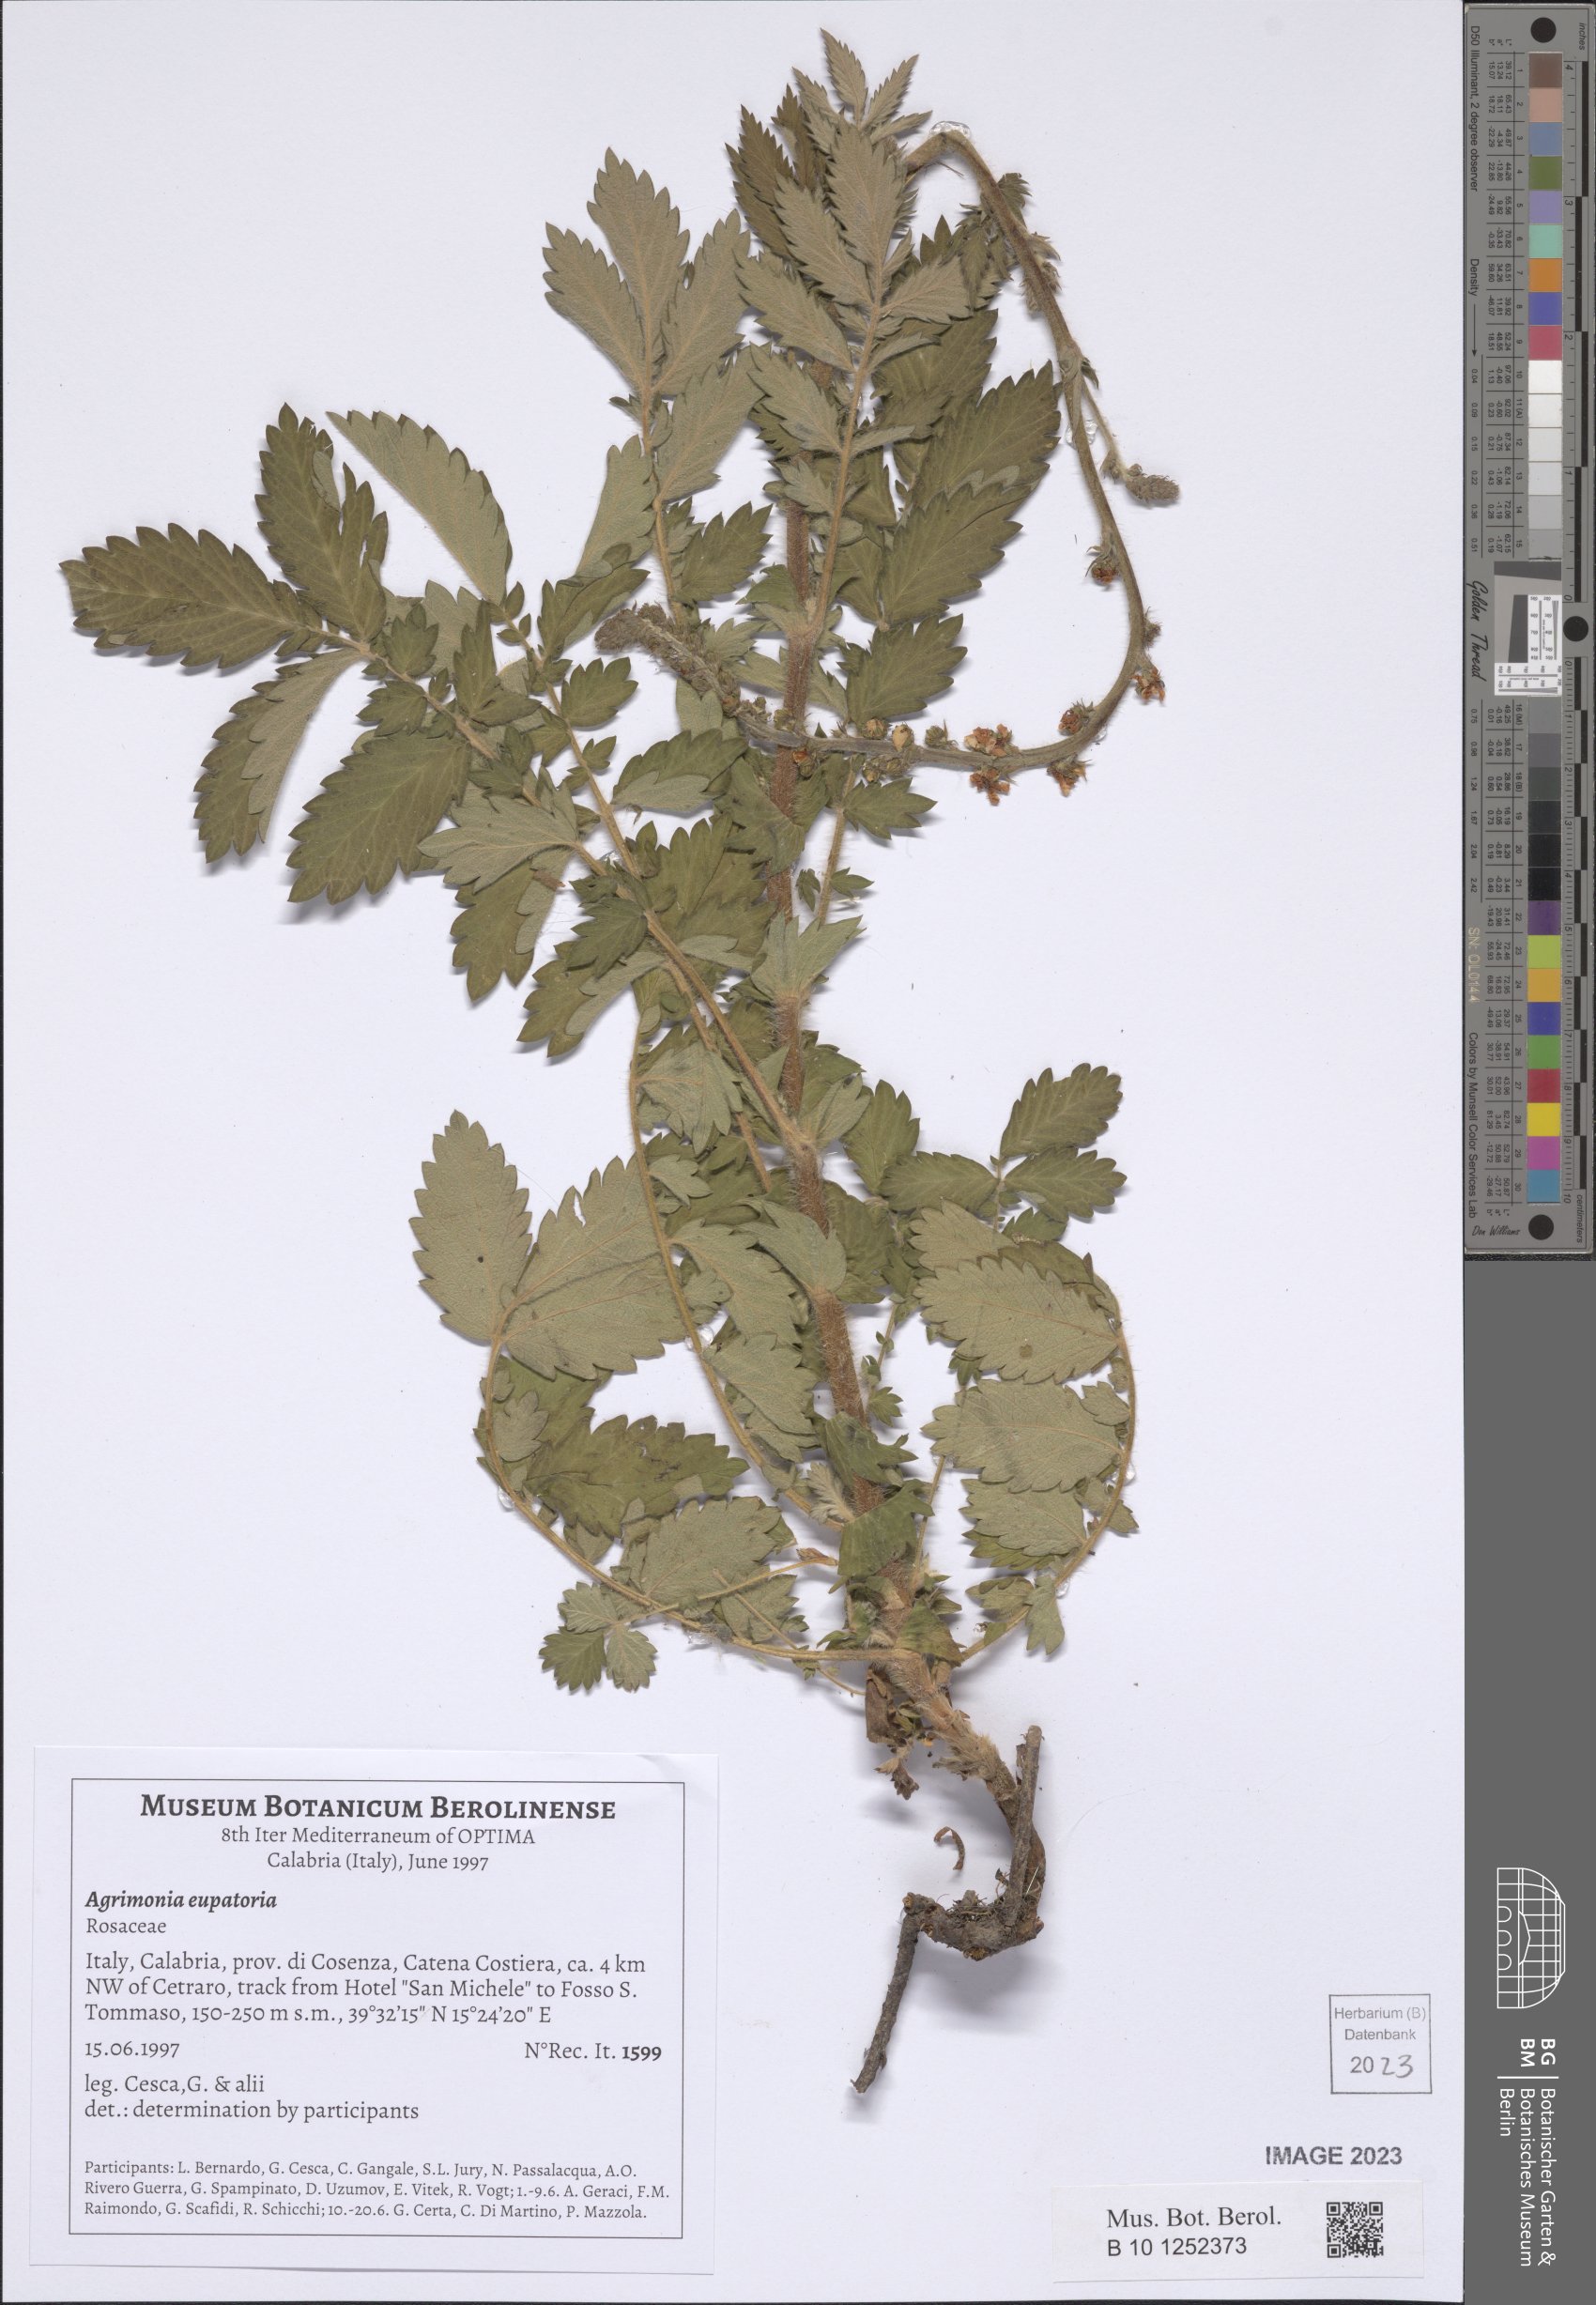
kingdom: Plantae
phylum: Tracheophyta
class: Magnoliopsida
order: Rosales
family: Rosaceae
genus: Agrimonia
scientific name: Agrimonia eupatoria
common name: Agrimony
